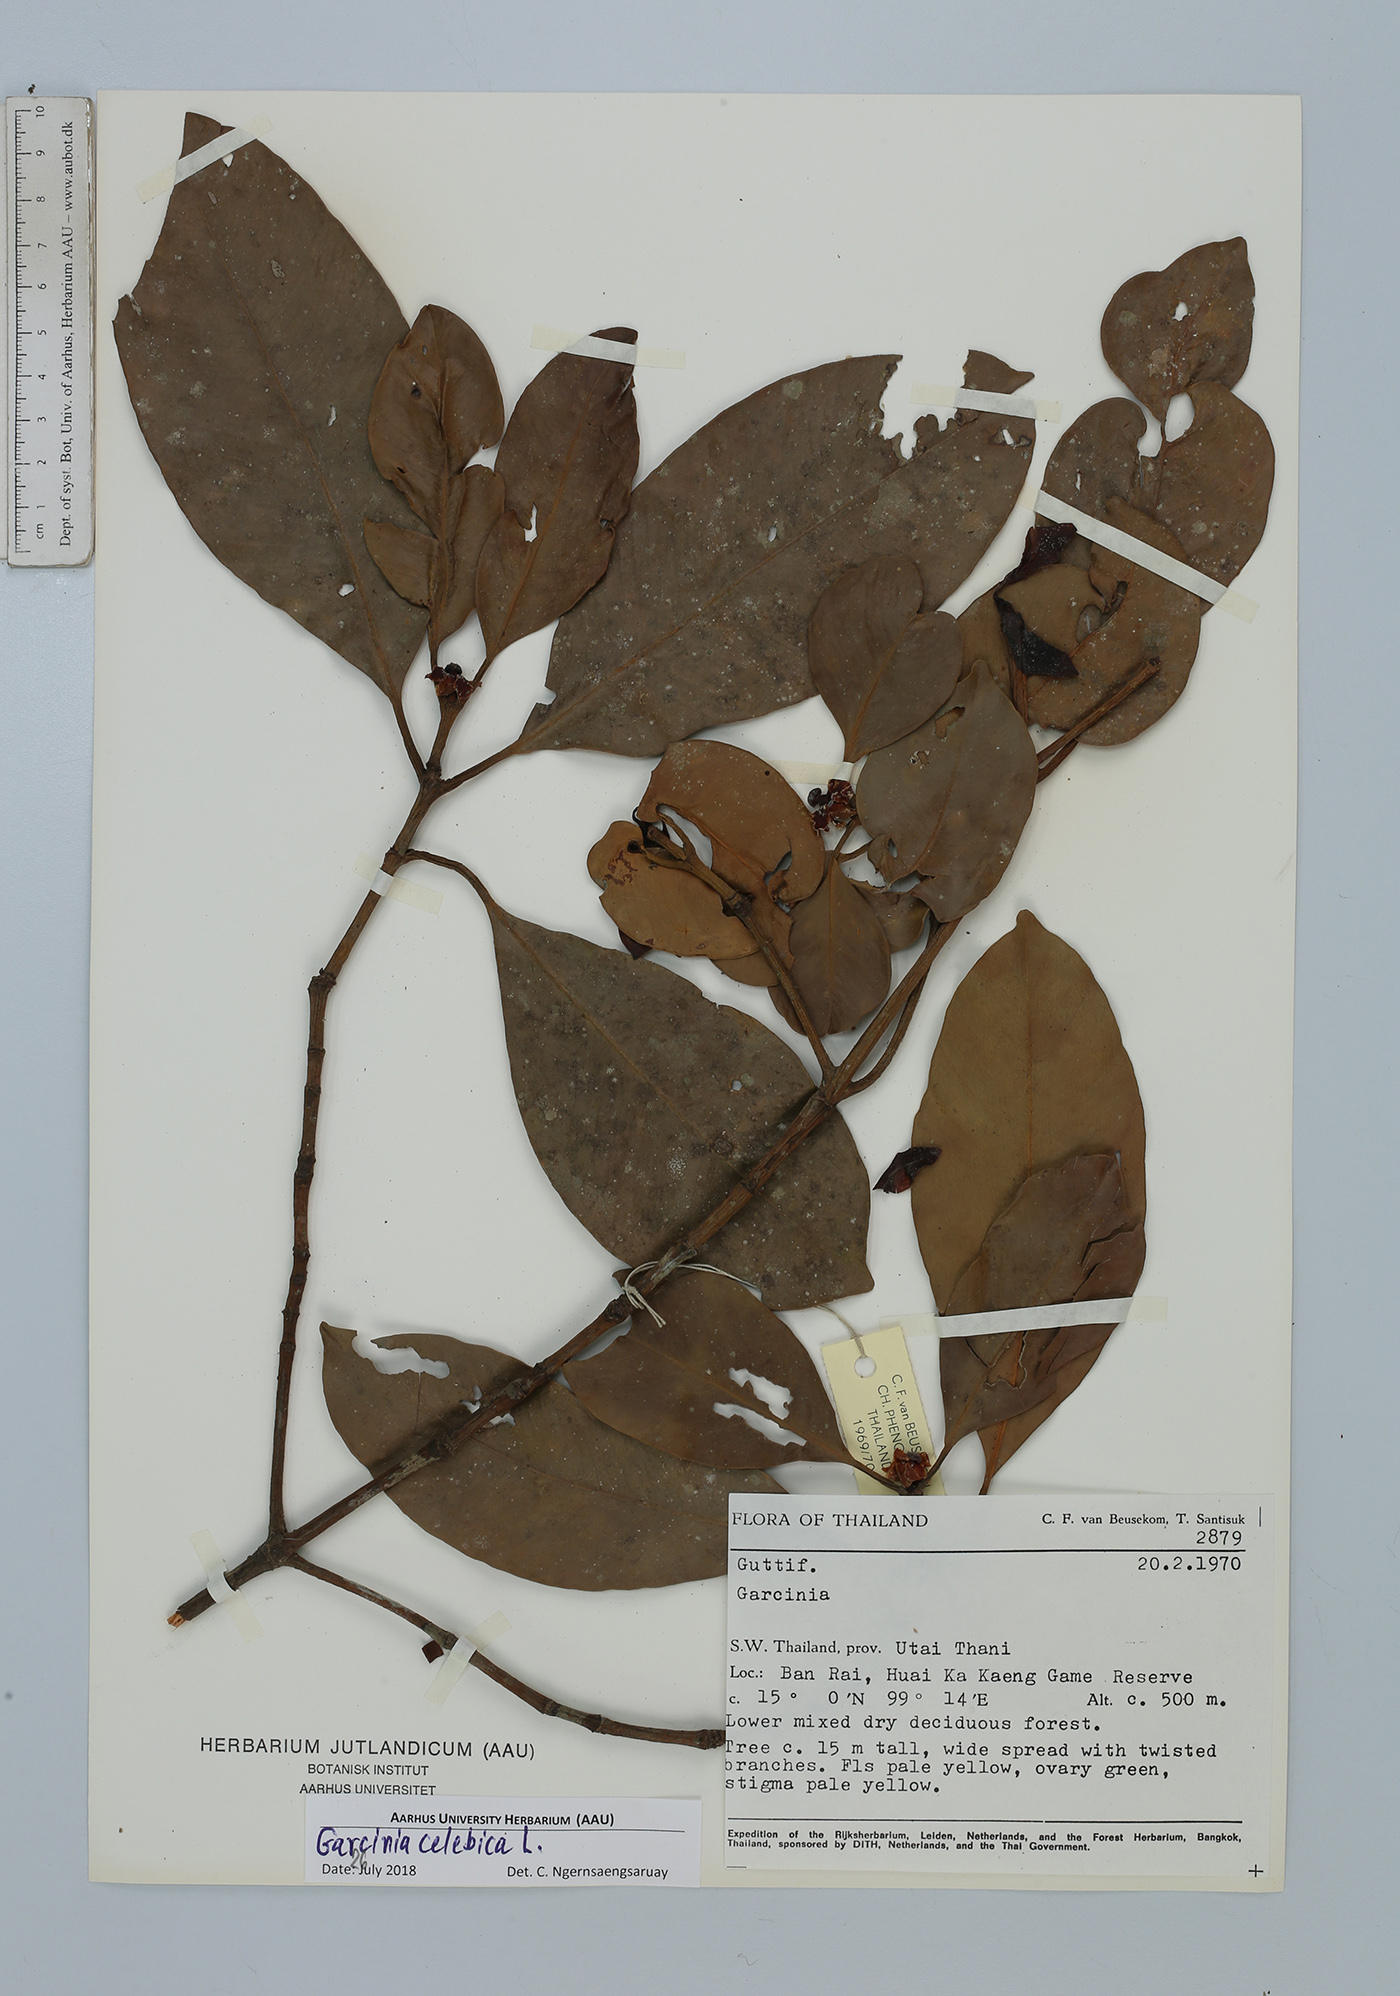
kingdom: Plantae
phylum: Tracheophyta
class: Magnoliopsida
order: Malpighiales
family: Clusiaceae
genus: Garcinia
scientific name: Garcinia celebica
